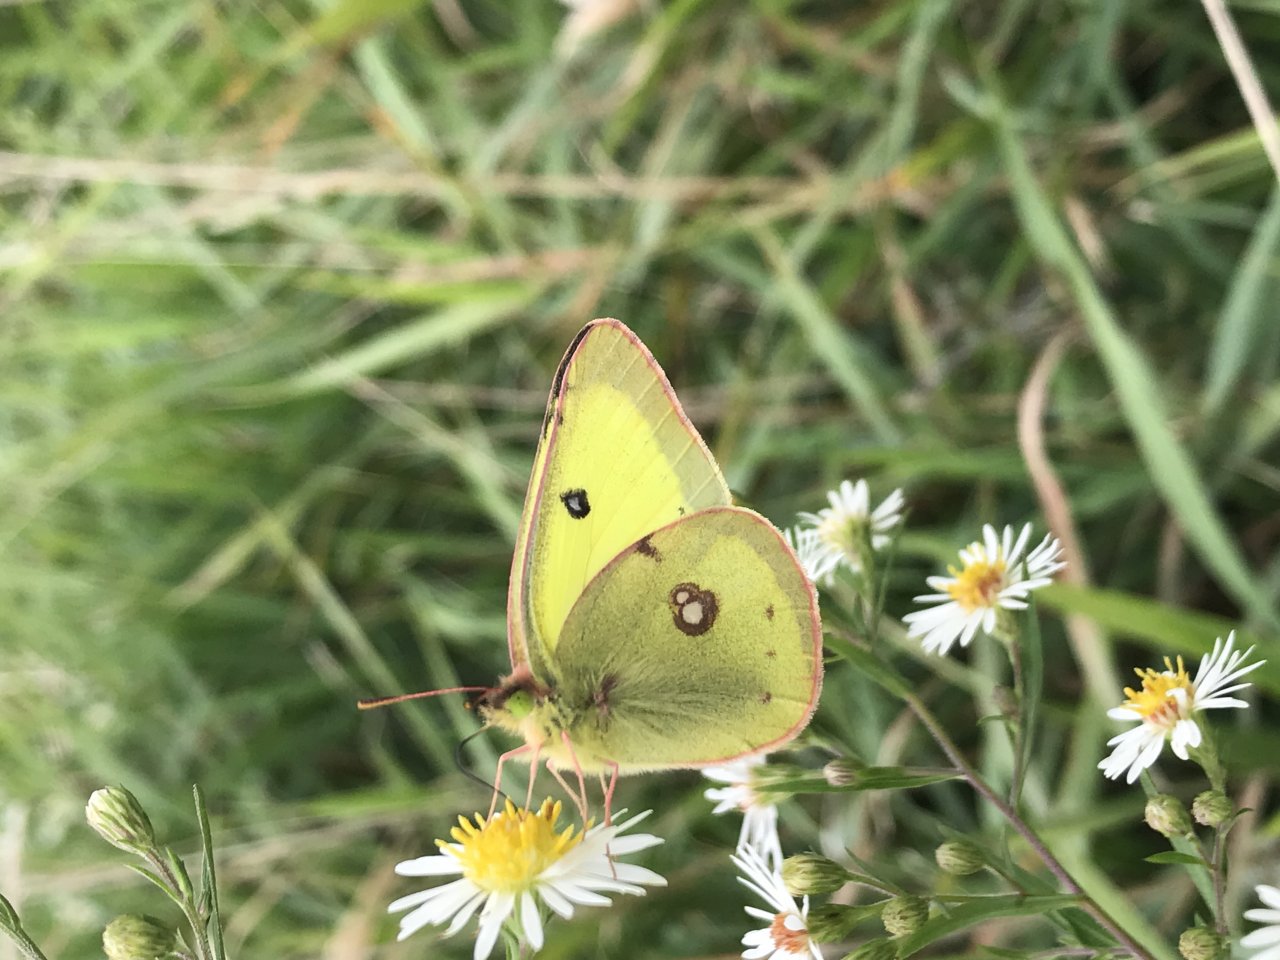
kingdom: Animalia
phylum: Arthropoda
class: Insecta
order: Lepidoptera
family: Pieridae
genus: Colias
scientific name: Colias philodice
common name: Clouded Sulphur
